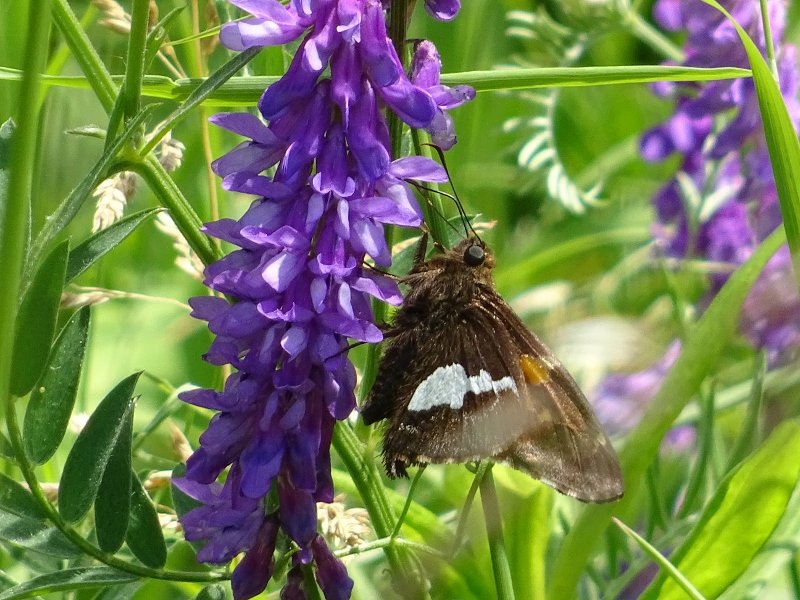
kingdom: Animalia
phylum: Arthropoda
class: Insecta
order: Lepidoptera
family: Hesperiidae
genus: Epargyreus
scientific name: Epargyreus clarus
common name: Silver-spotted Skipper
